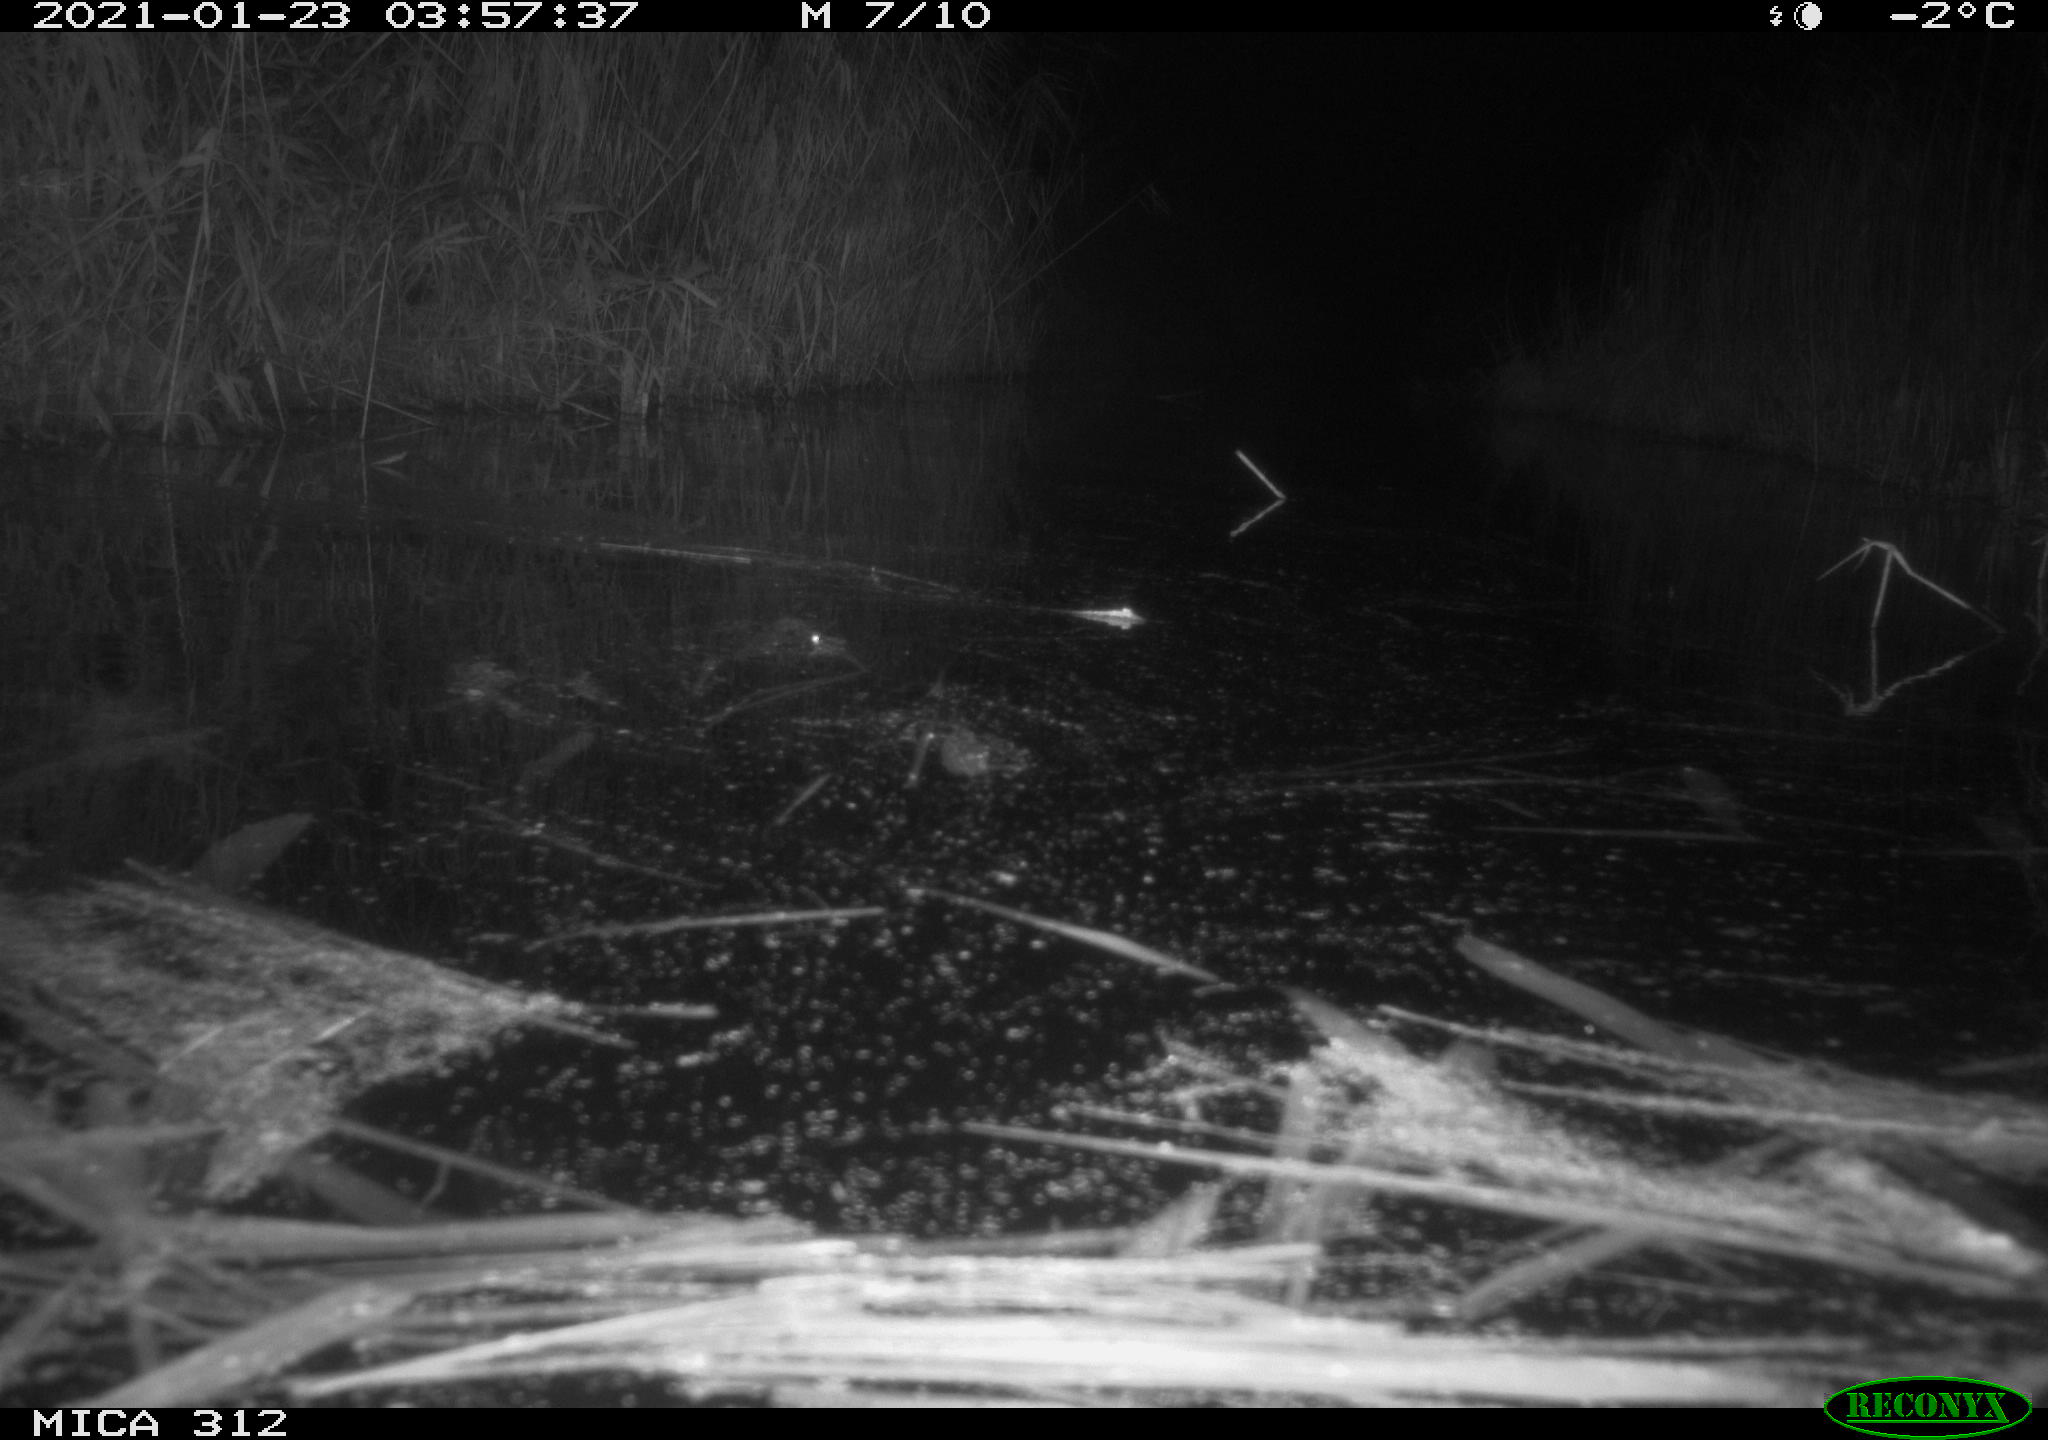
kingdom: Animalia
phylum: Chordata
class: Mammalia
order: Rodentia
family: Muridae
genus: Rattus
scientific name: Rattus norvegicus
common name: Brown rat
